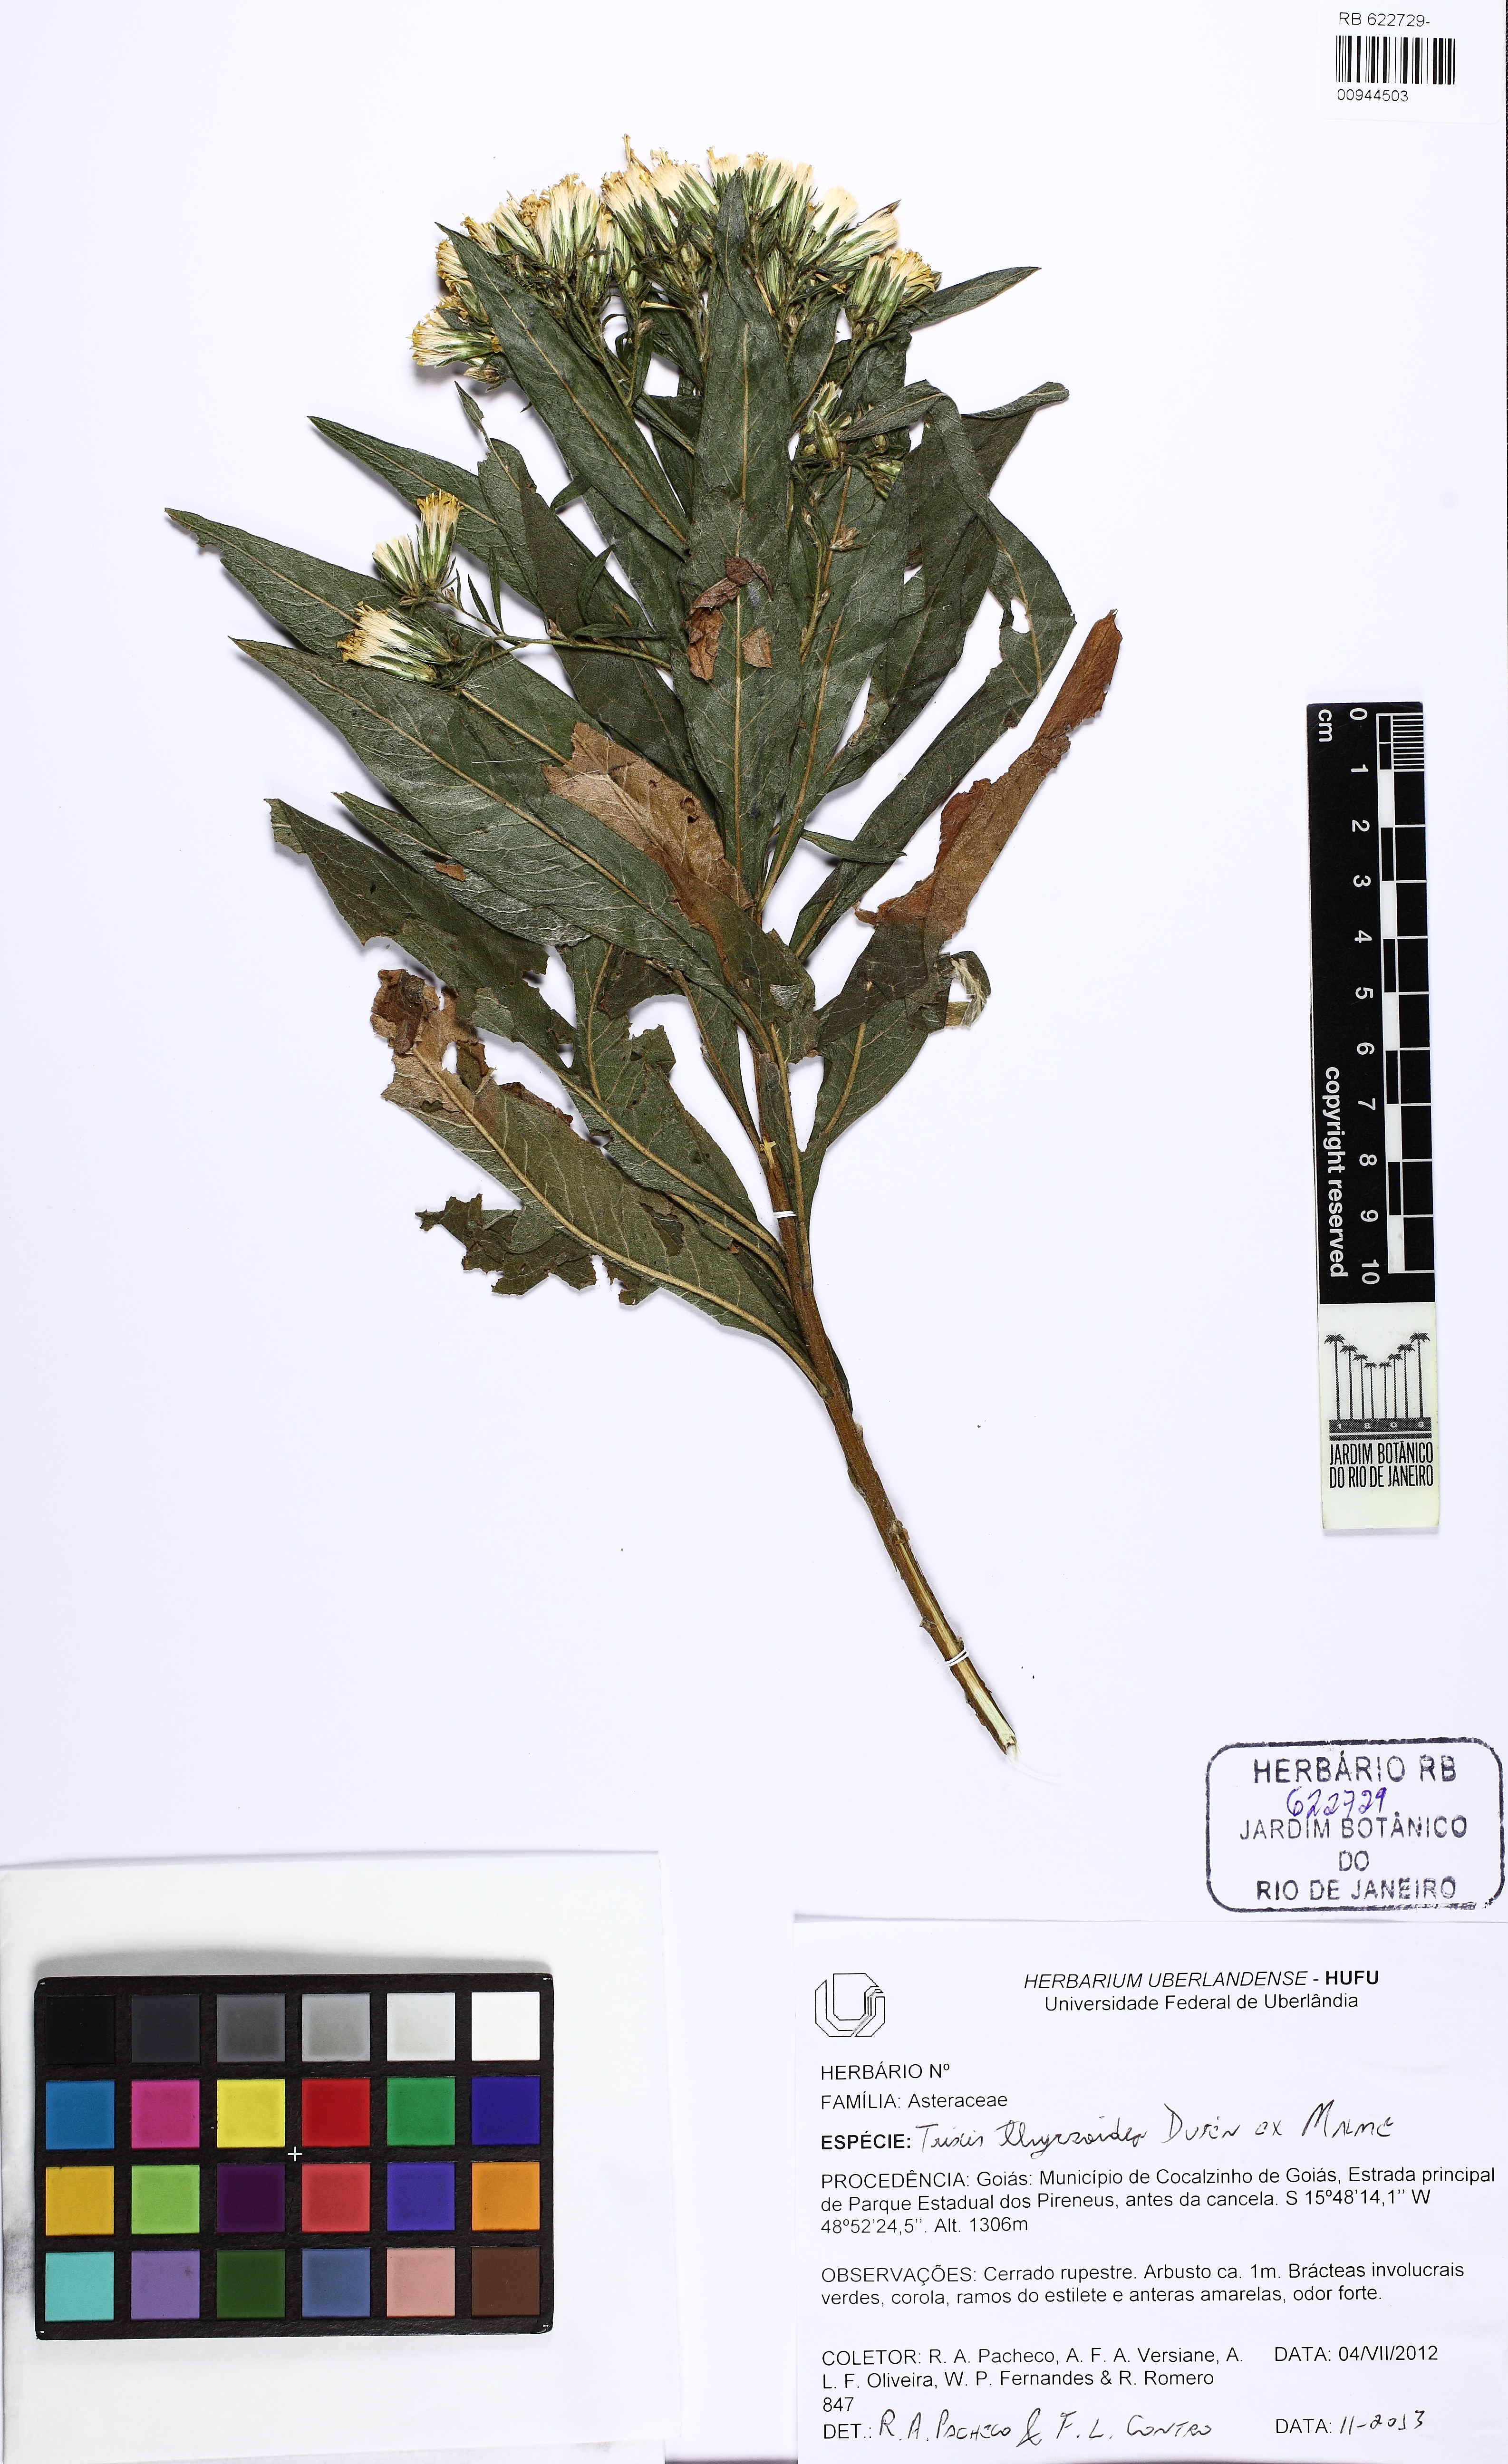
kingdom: Plantae
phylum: Tracheophyta
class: Magnoliopsida
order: Asterales
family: Asteraceae
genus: Trixis
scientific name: Trixis thyrsoidea
